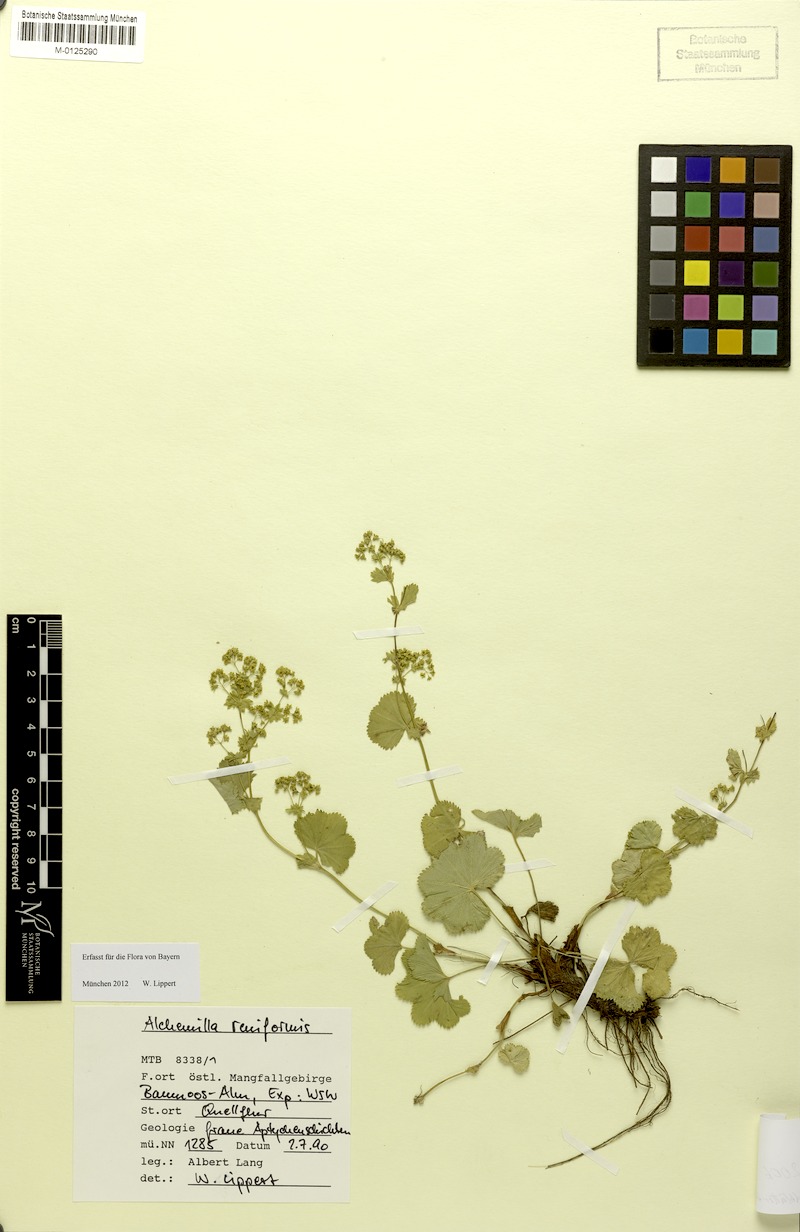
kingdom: Plantae
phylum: Tracheophyta
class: Magnoliopsida
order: Rosales
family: Rosaceae
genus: Alchemilla
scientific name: Alchemilla impexa
